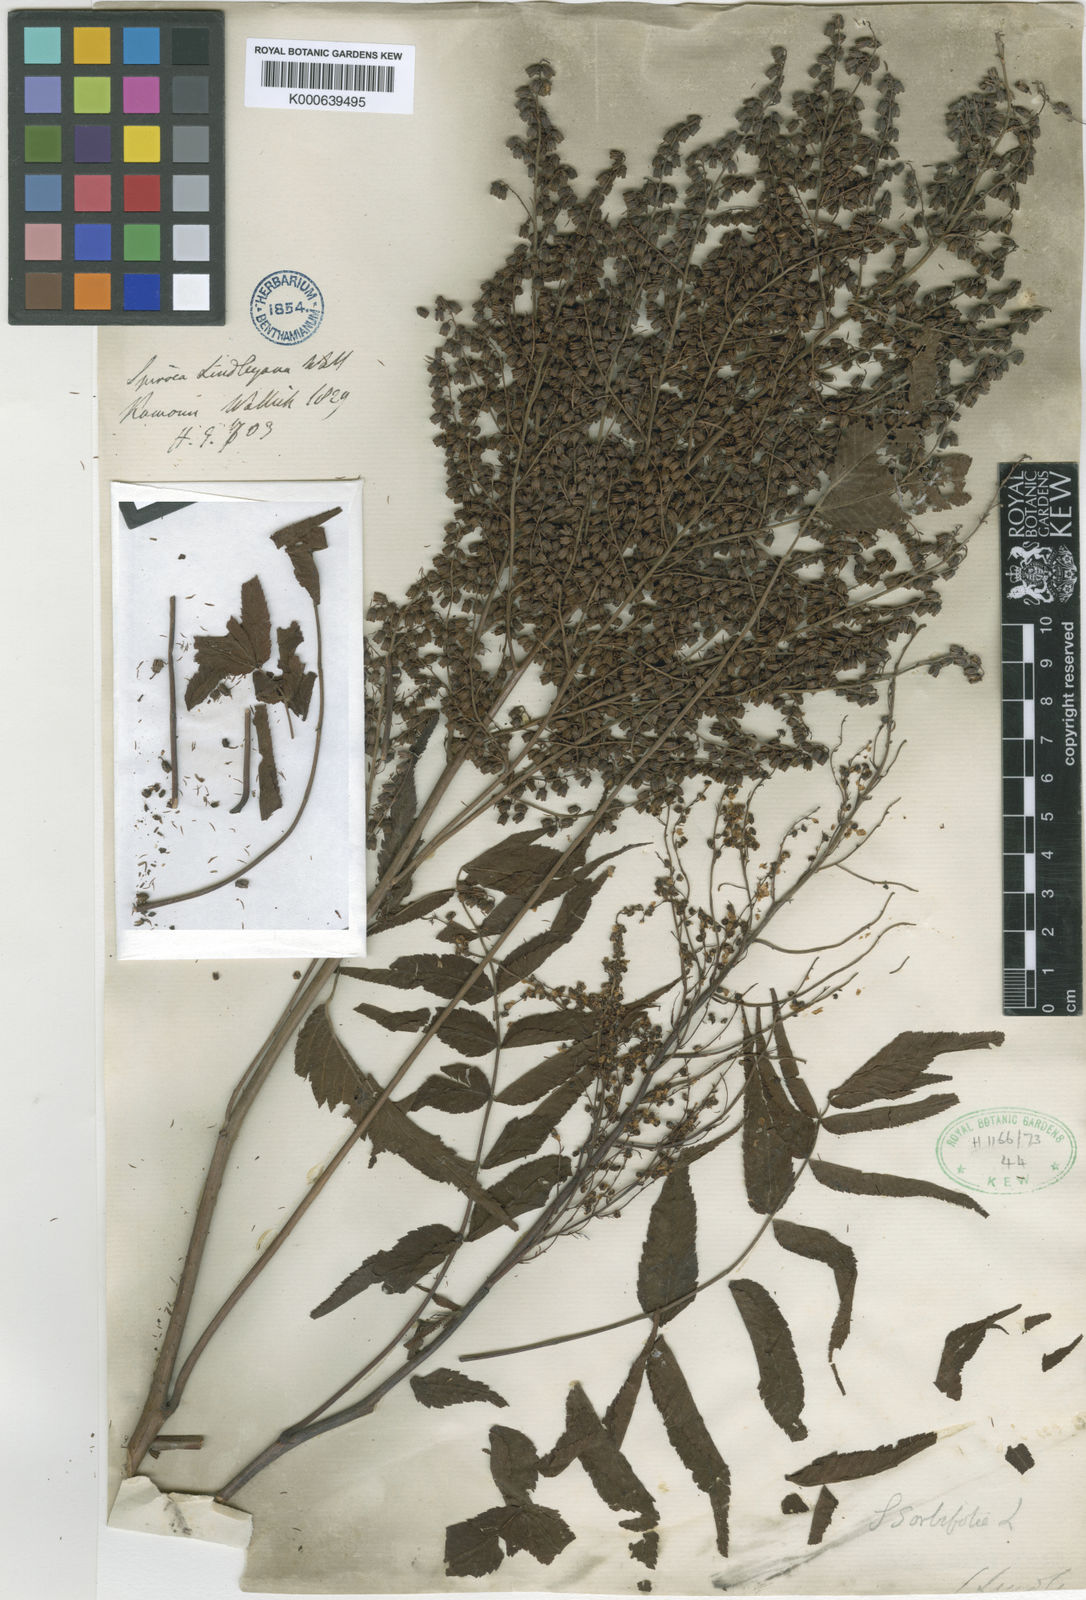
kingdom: Plantae
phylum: Tracheophyta
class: Magnoliopsida
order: Rosales
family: Rosaceae
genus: Sorbaria
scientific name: Sorbaria sorbifolia
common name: False spiraea
